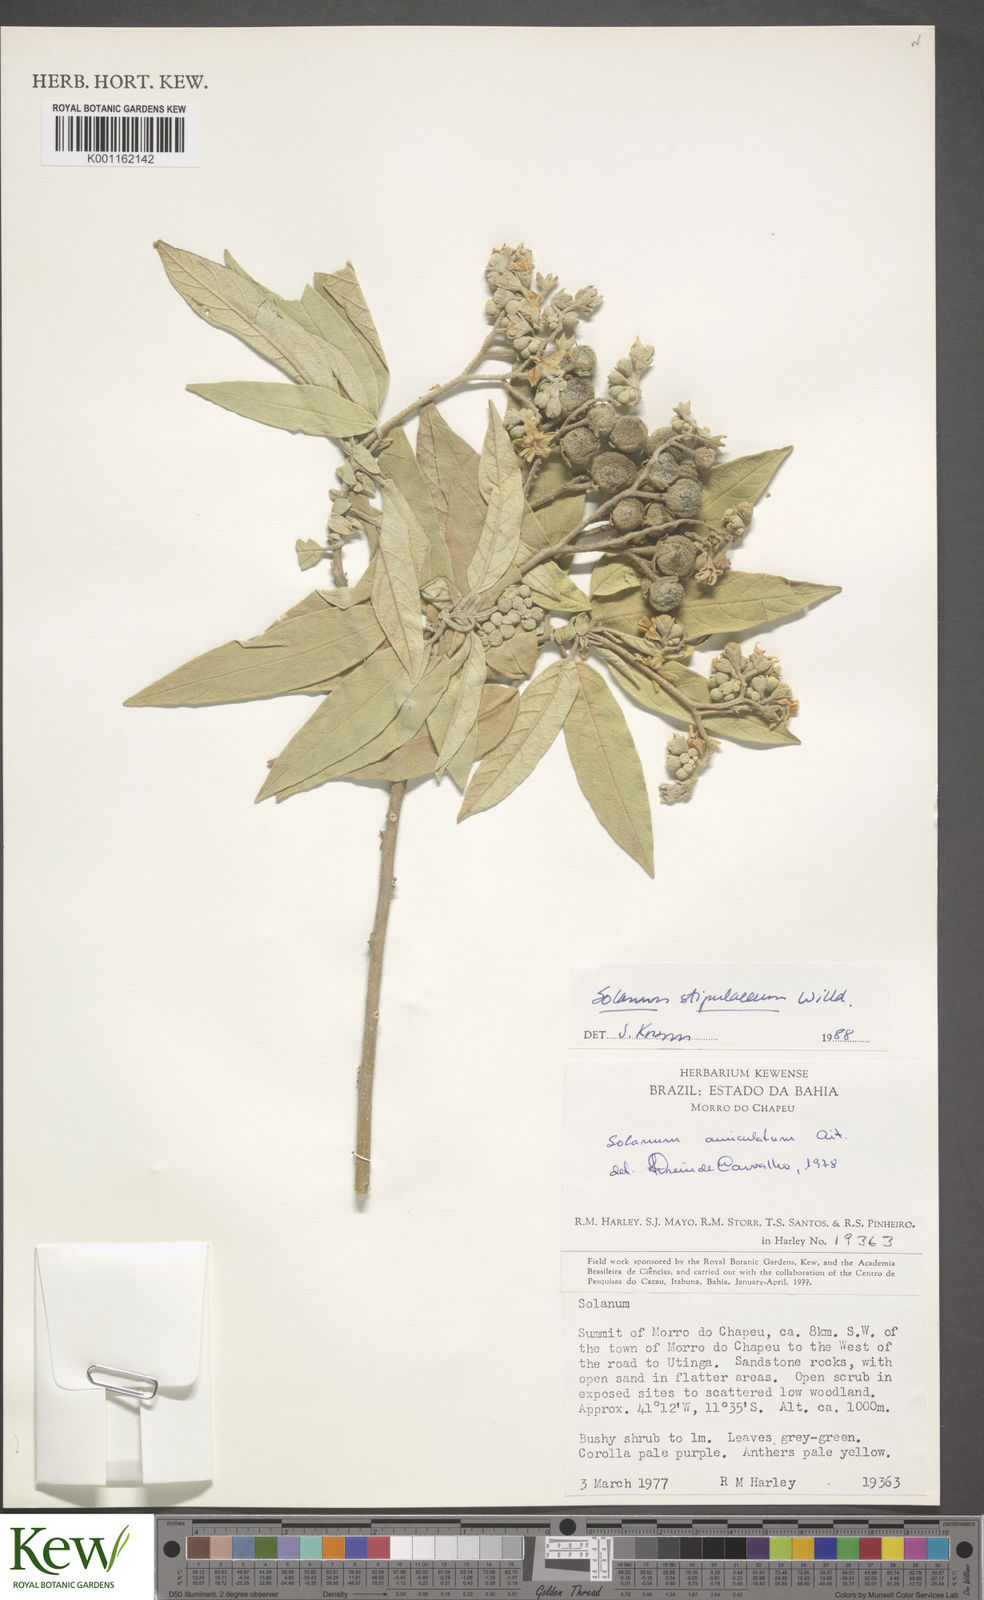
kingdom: Plantae
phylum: Tracheophyta
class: Magnoliopsida
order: Solanales
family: Solanaceae
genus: Solanum
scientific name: Solanum stipulaceum
